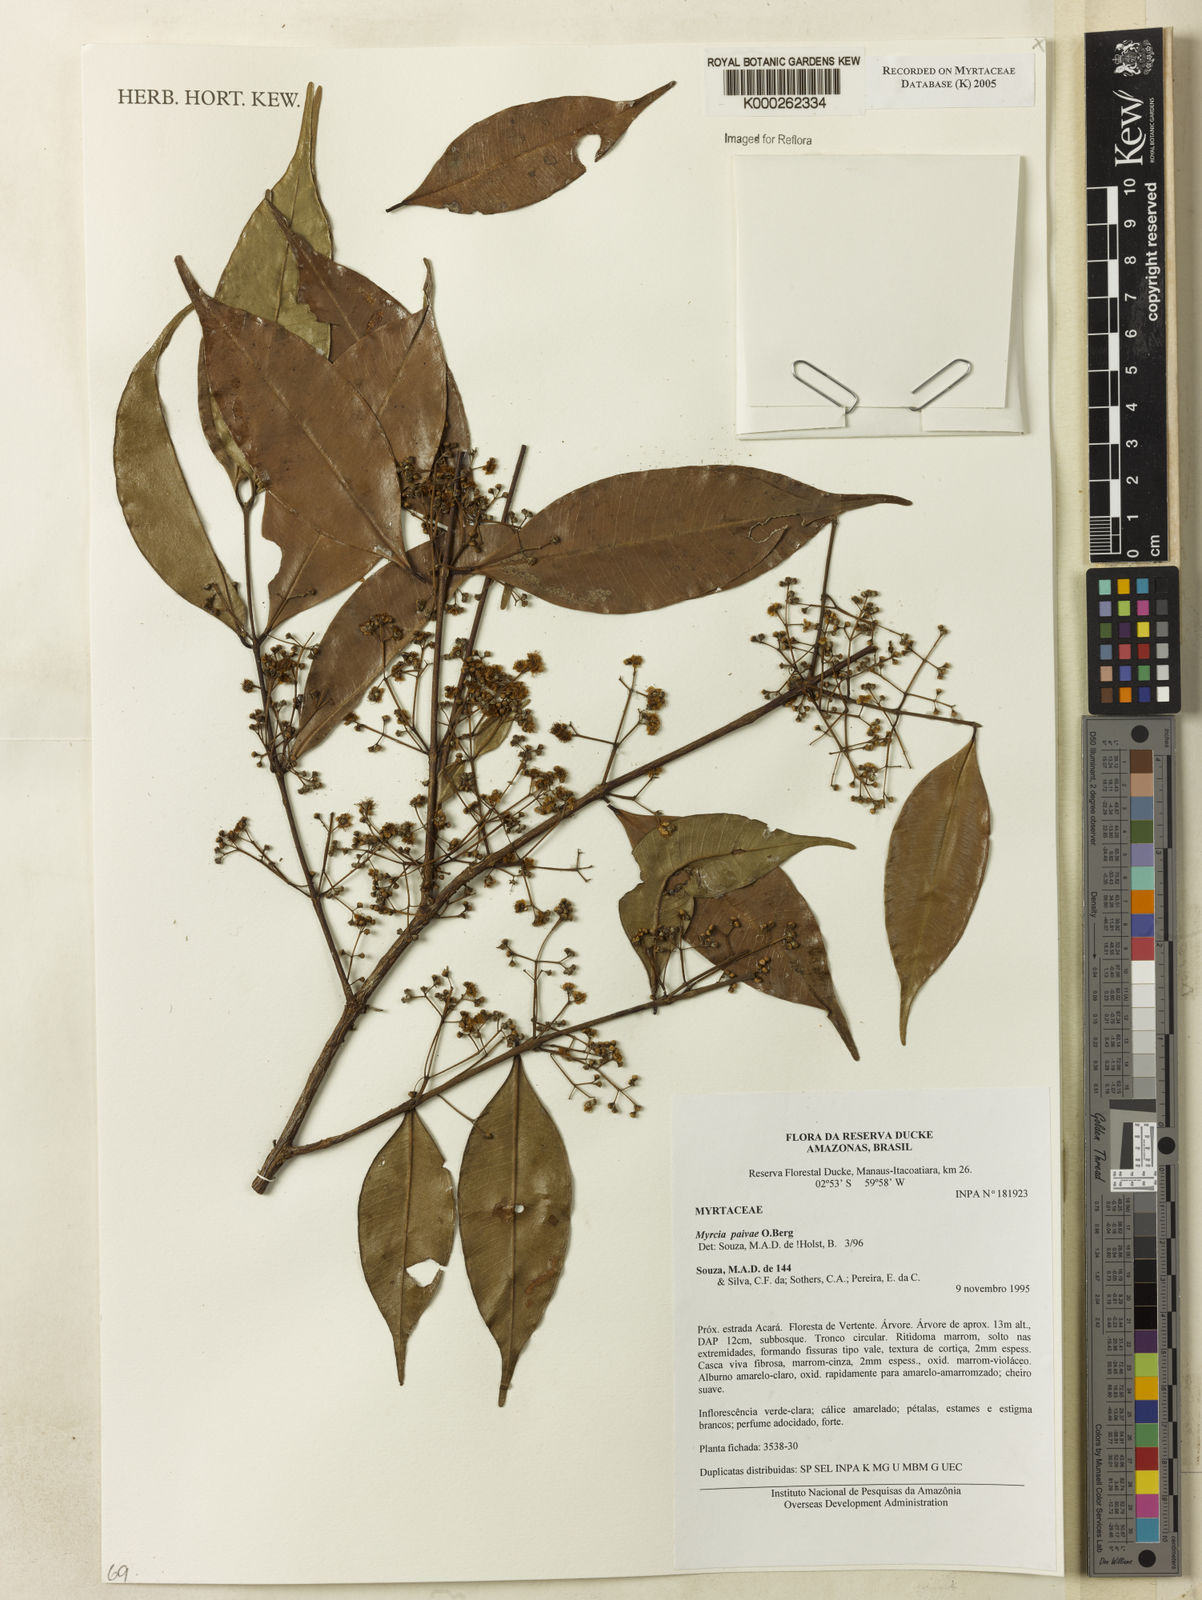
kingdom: Plantae
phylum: Tracheophyta
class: Magnoliopsida
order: Myrtales
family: Myrtaceae
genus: Myrcia
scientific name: Myrcia paivae
